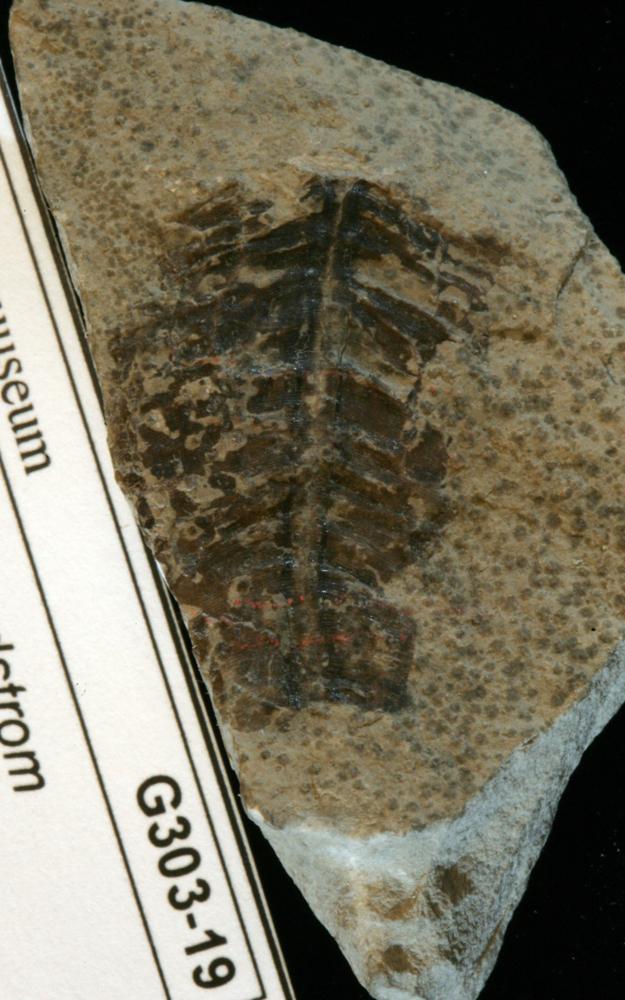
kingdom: Animalia
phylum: Cnidaria
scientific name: Cnidaria
